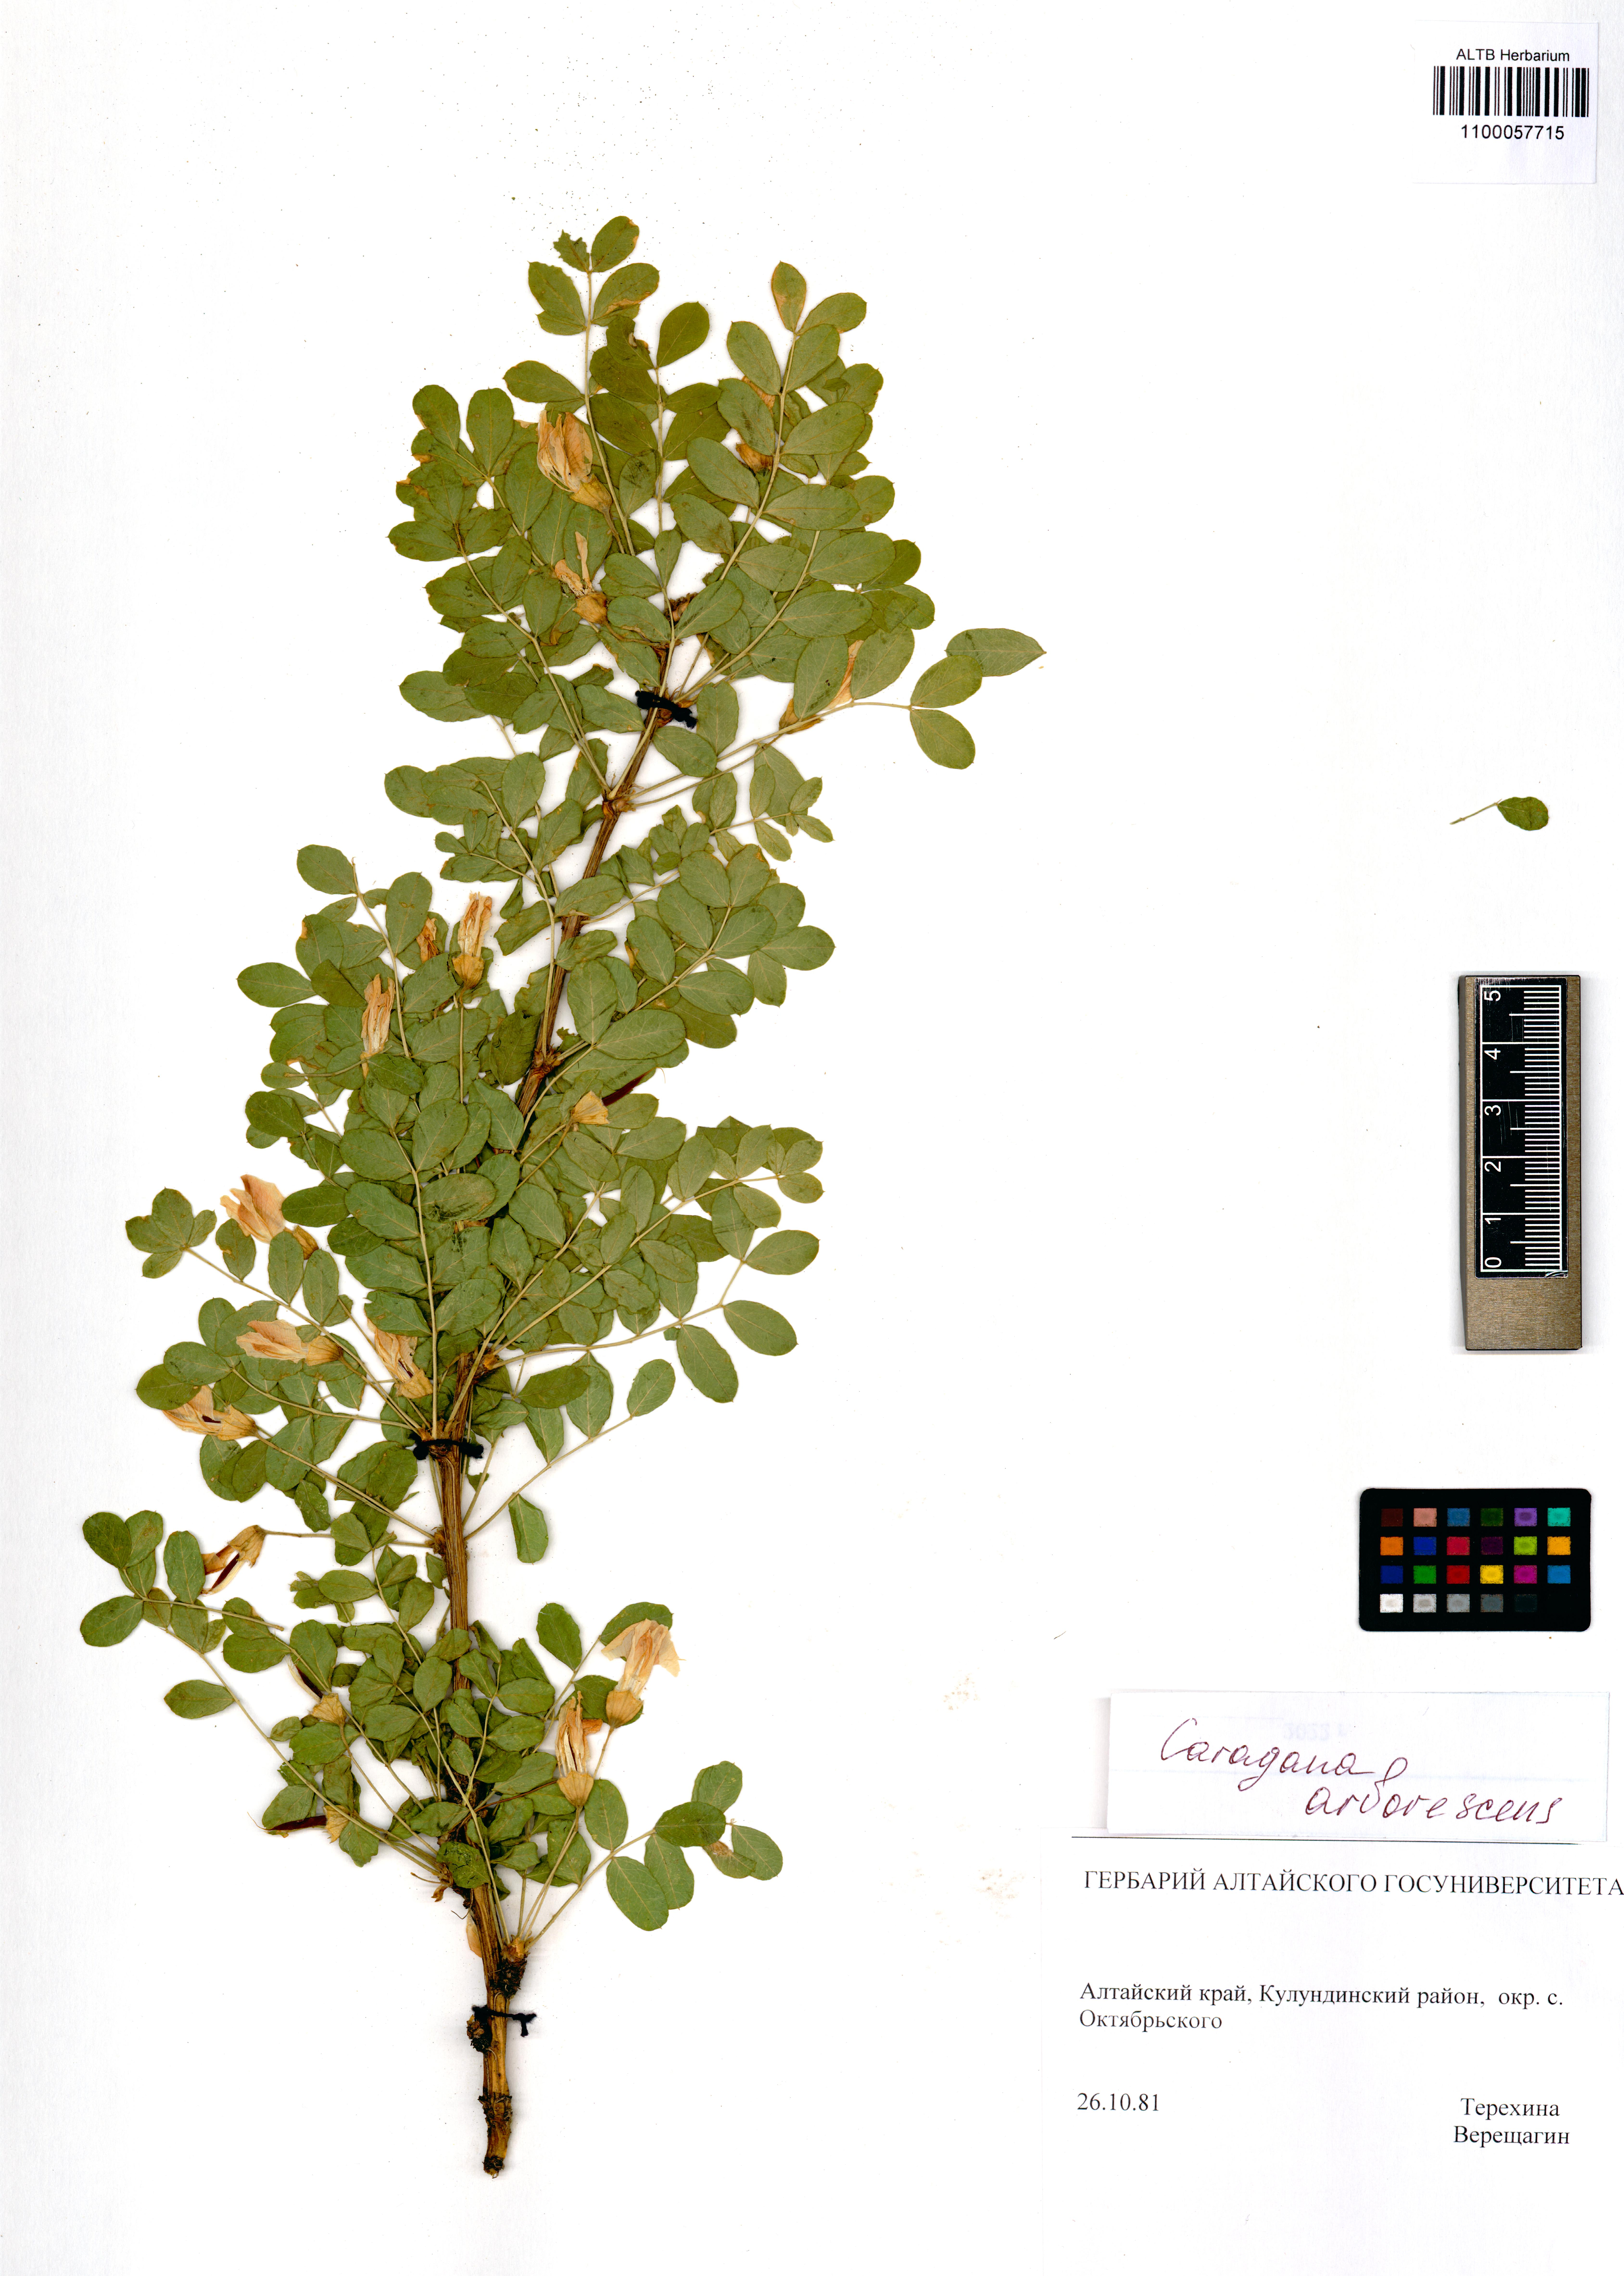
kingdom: Plantae
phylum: Tracheophyta
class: Magnoliopsida
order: Fabales
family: Fabaceae
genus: Caragana
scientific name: Caragana arborescens
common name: Siberian peashrub
